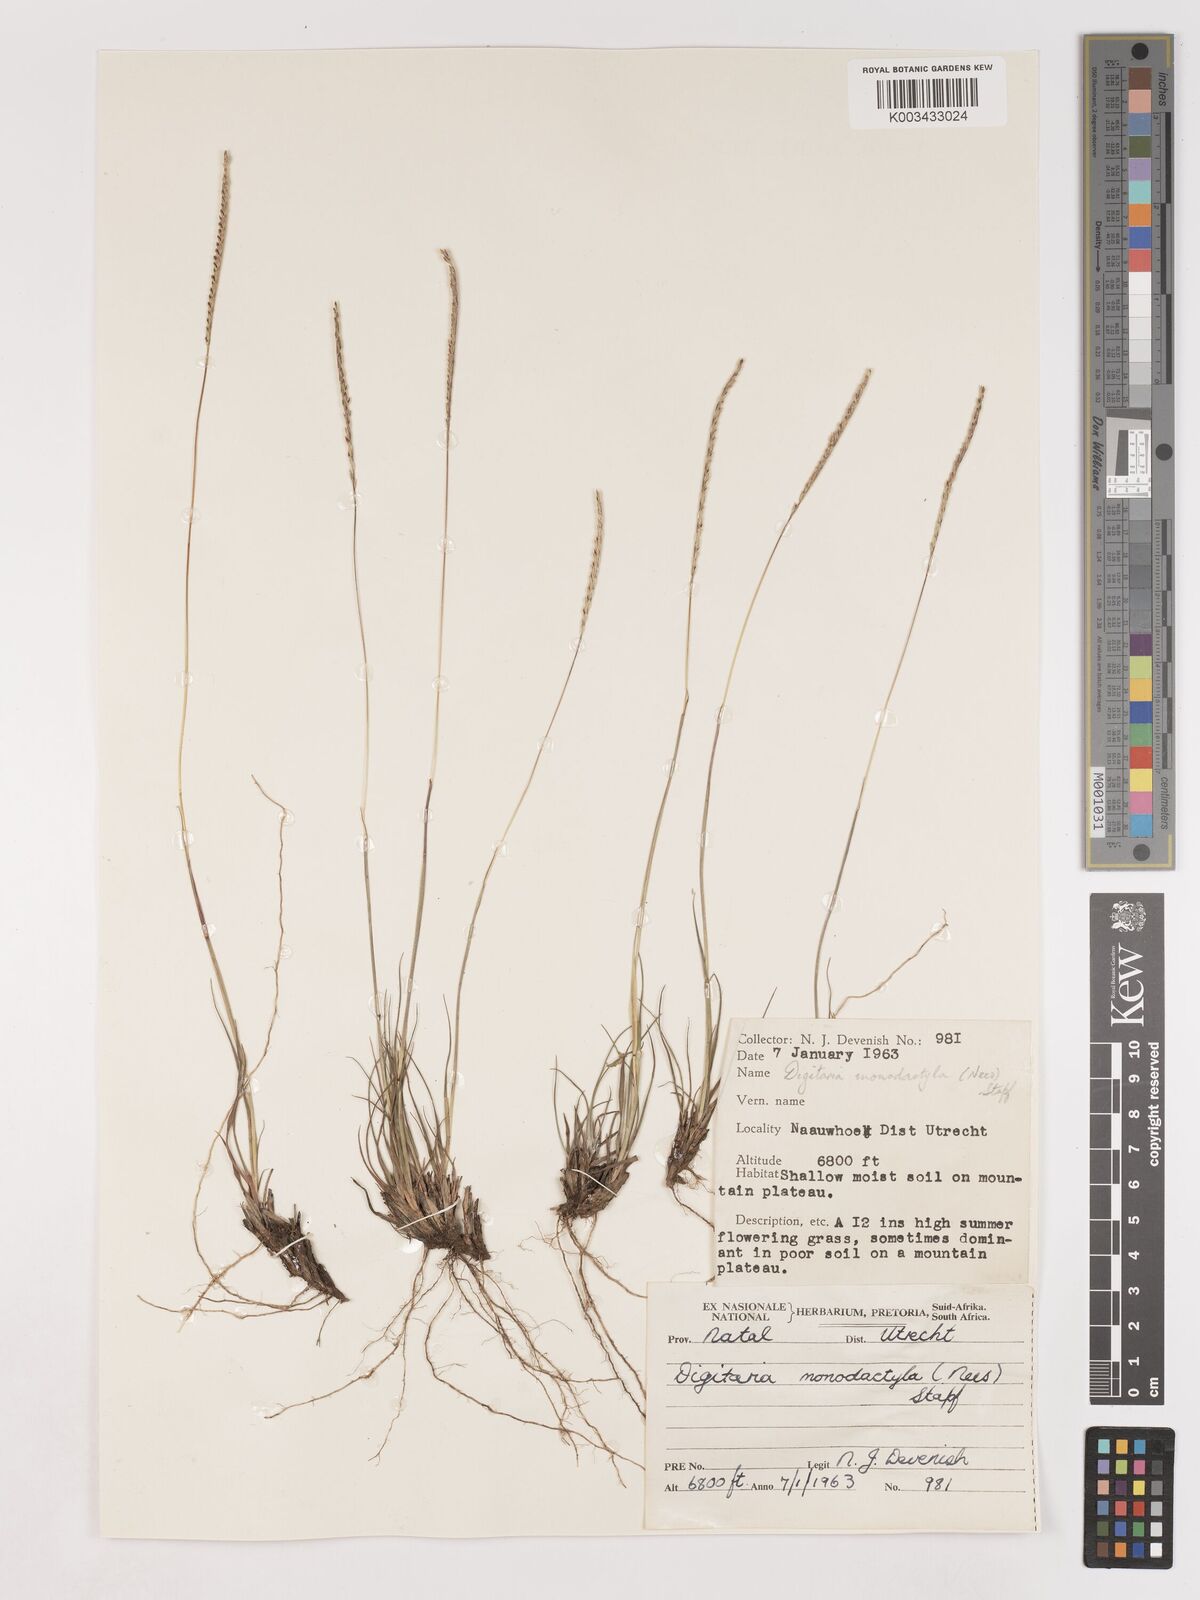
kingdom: Plantae
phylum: Tracheophyta
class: Liliopsida
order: Poales
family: Poaceae
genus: Digitaria
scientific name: Digitaria monodactyla
